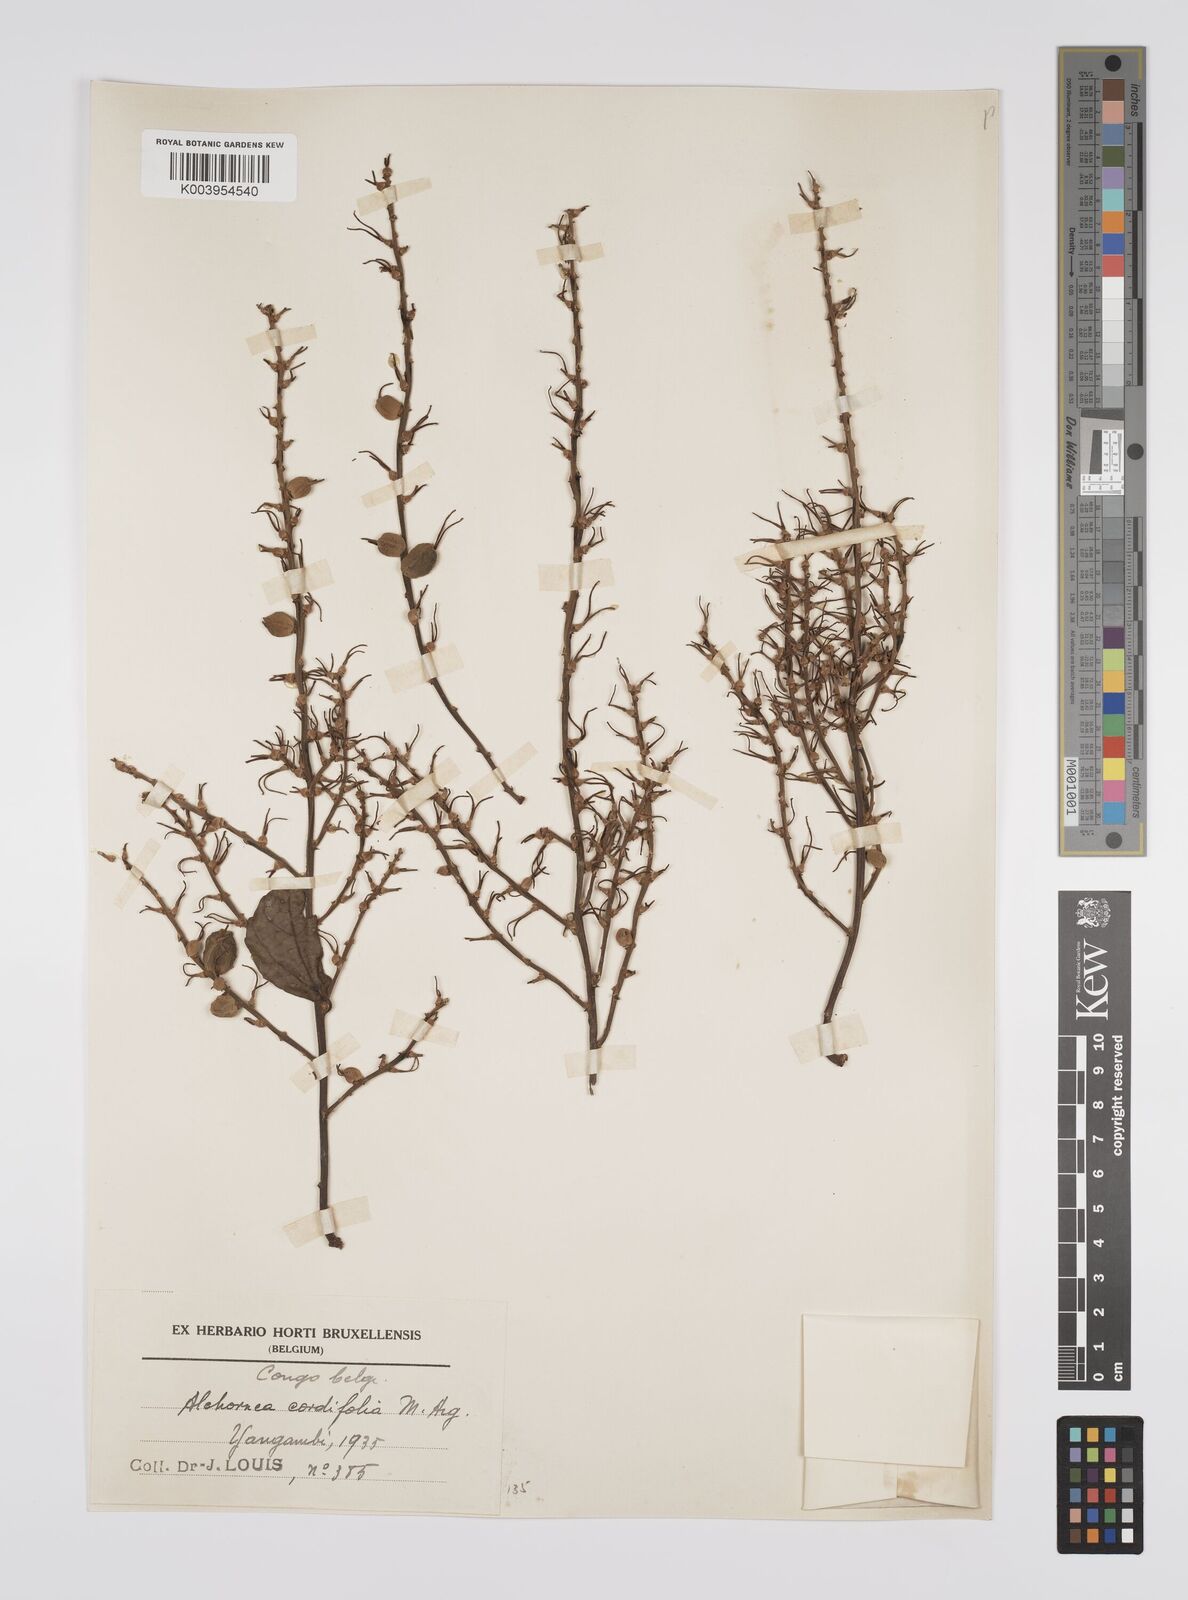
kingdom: Plantae
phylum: Tracheophyta
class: Magnoliopsida
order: Malpighiales
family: Euphorbiaceae
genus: Alchornea
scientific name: Alchornea cordifolia
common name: Christmasbush
